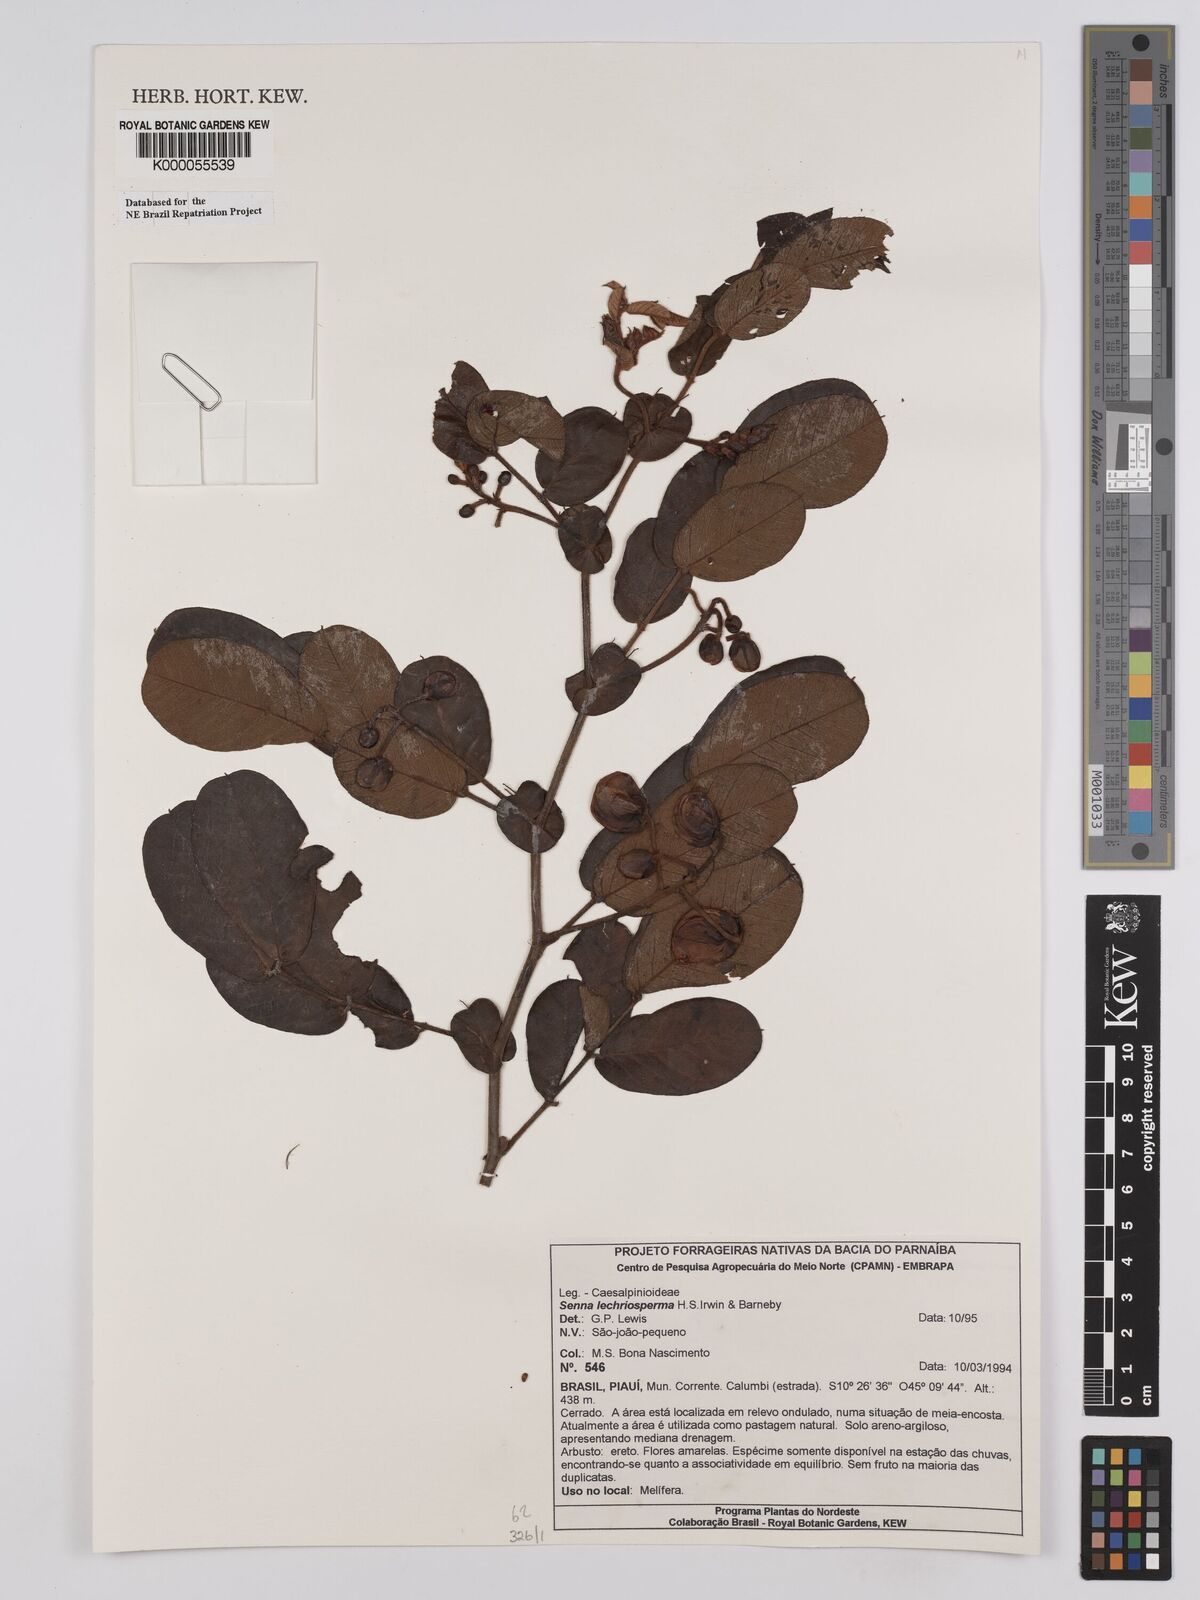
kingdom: Plantae
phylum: Tracheophyta
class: Magnoliopsida
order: Fabales
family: Fabaceae
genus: Senna
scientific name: Senna lechriosperma
